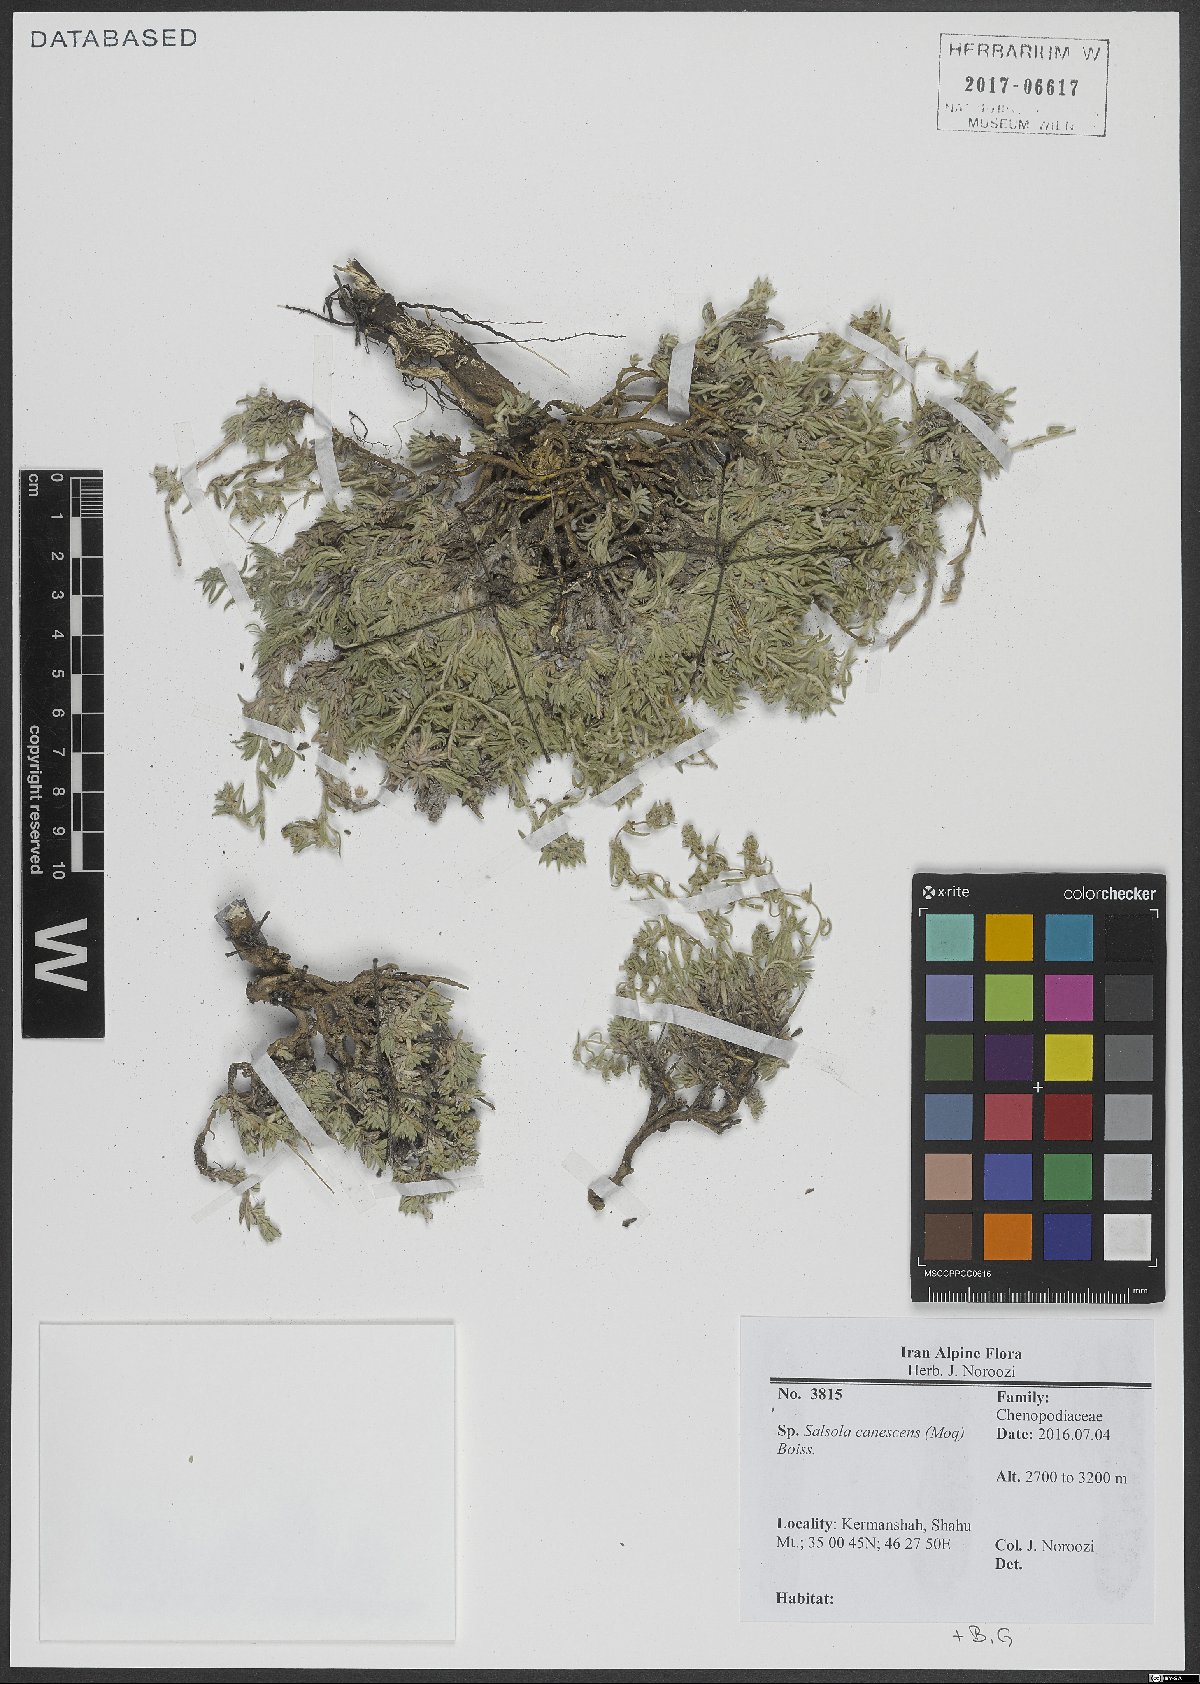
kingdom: Plantae
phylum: Tracheophyta
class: Magnoliopsida
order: Caryophyllales
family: Amaranthaceae
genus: Akhania
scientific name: Akhania canescens
